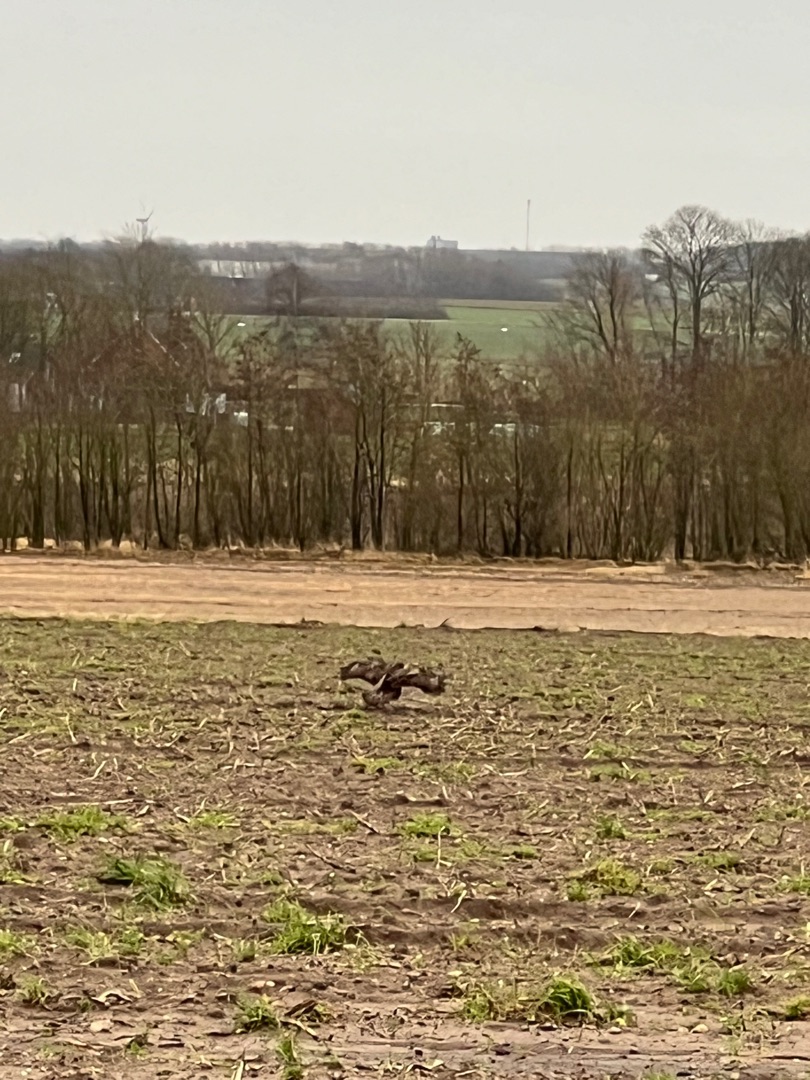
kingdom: Animalia
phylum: Chordata
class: Aves
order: Accipitriformes
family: Accipitridae
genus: Buteo
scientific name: Buteo buteo
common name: Musvåge
